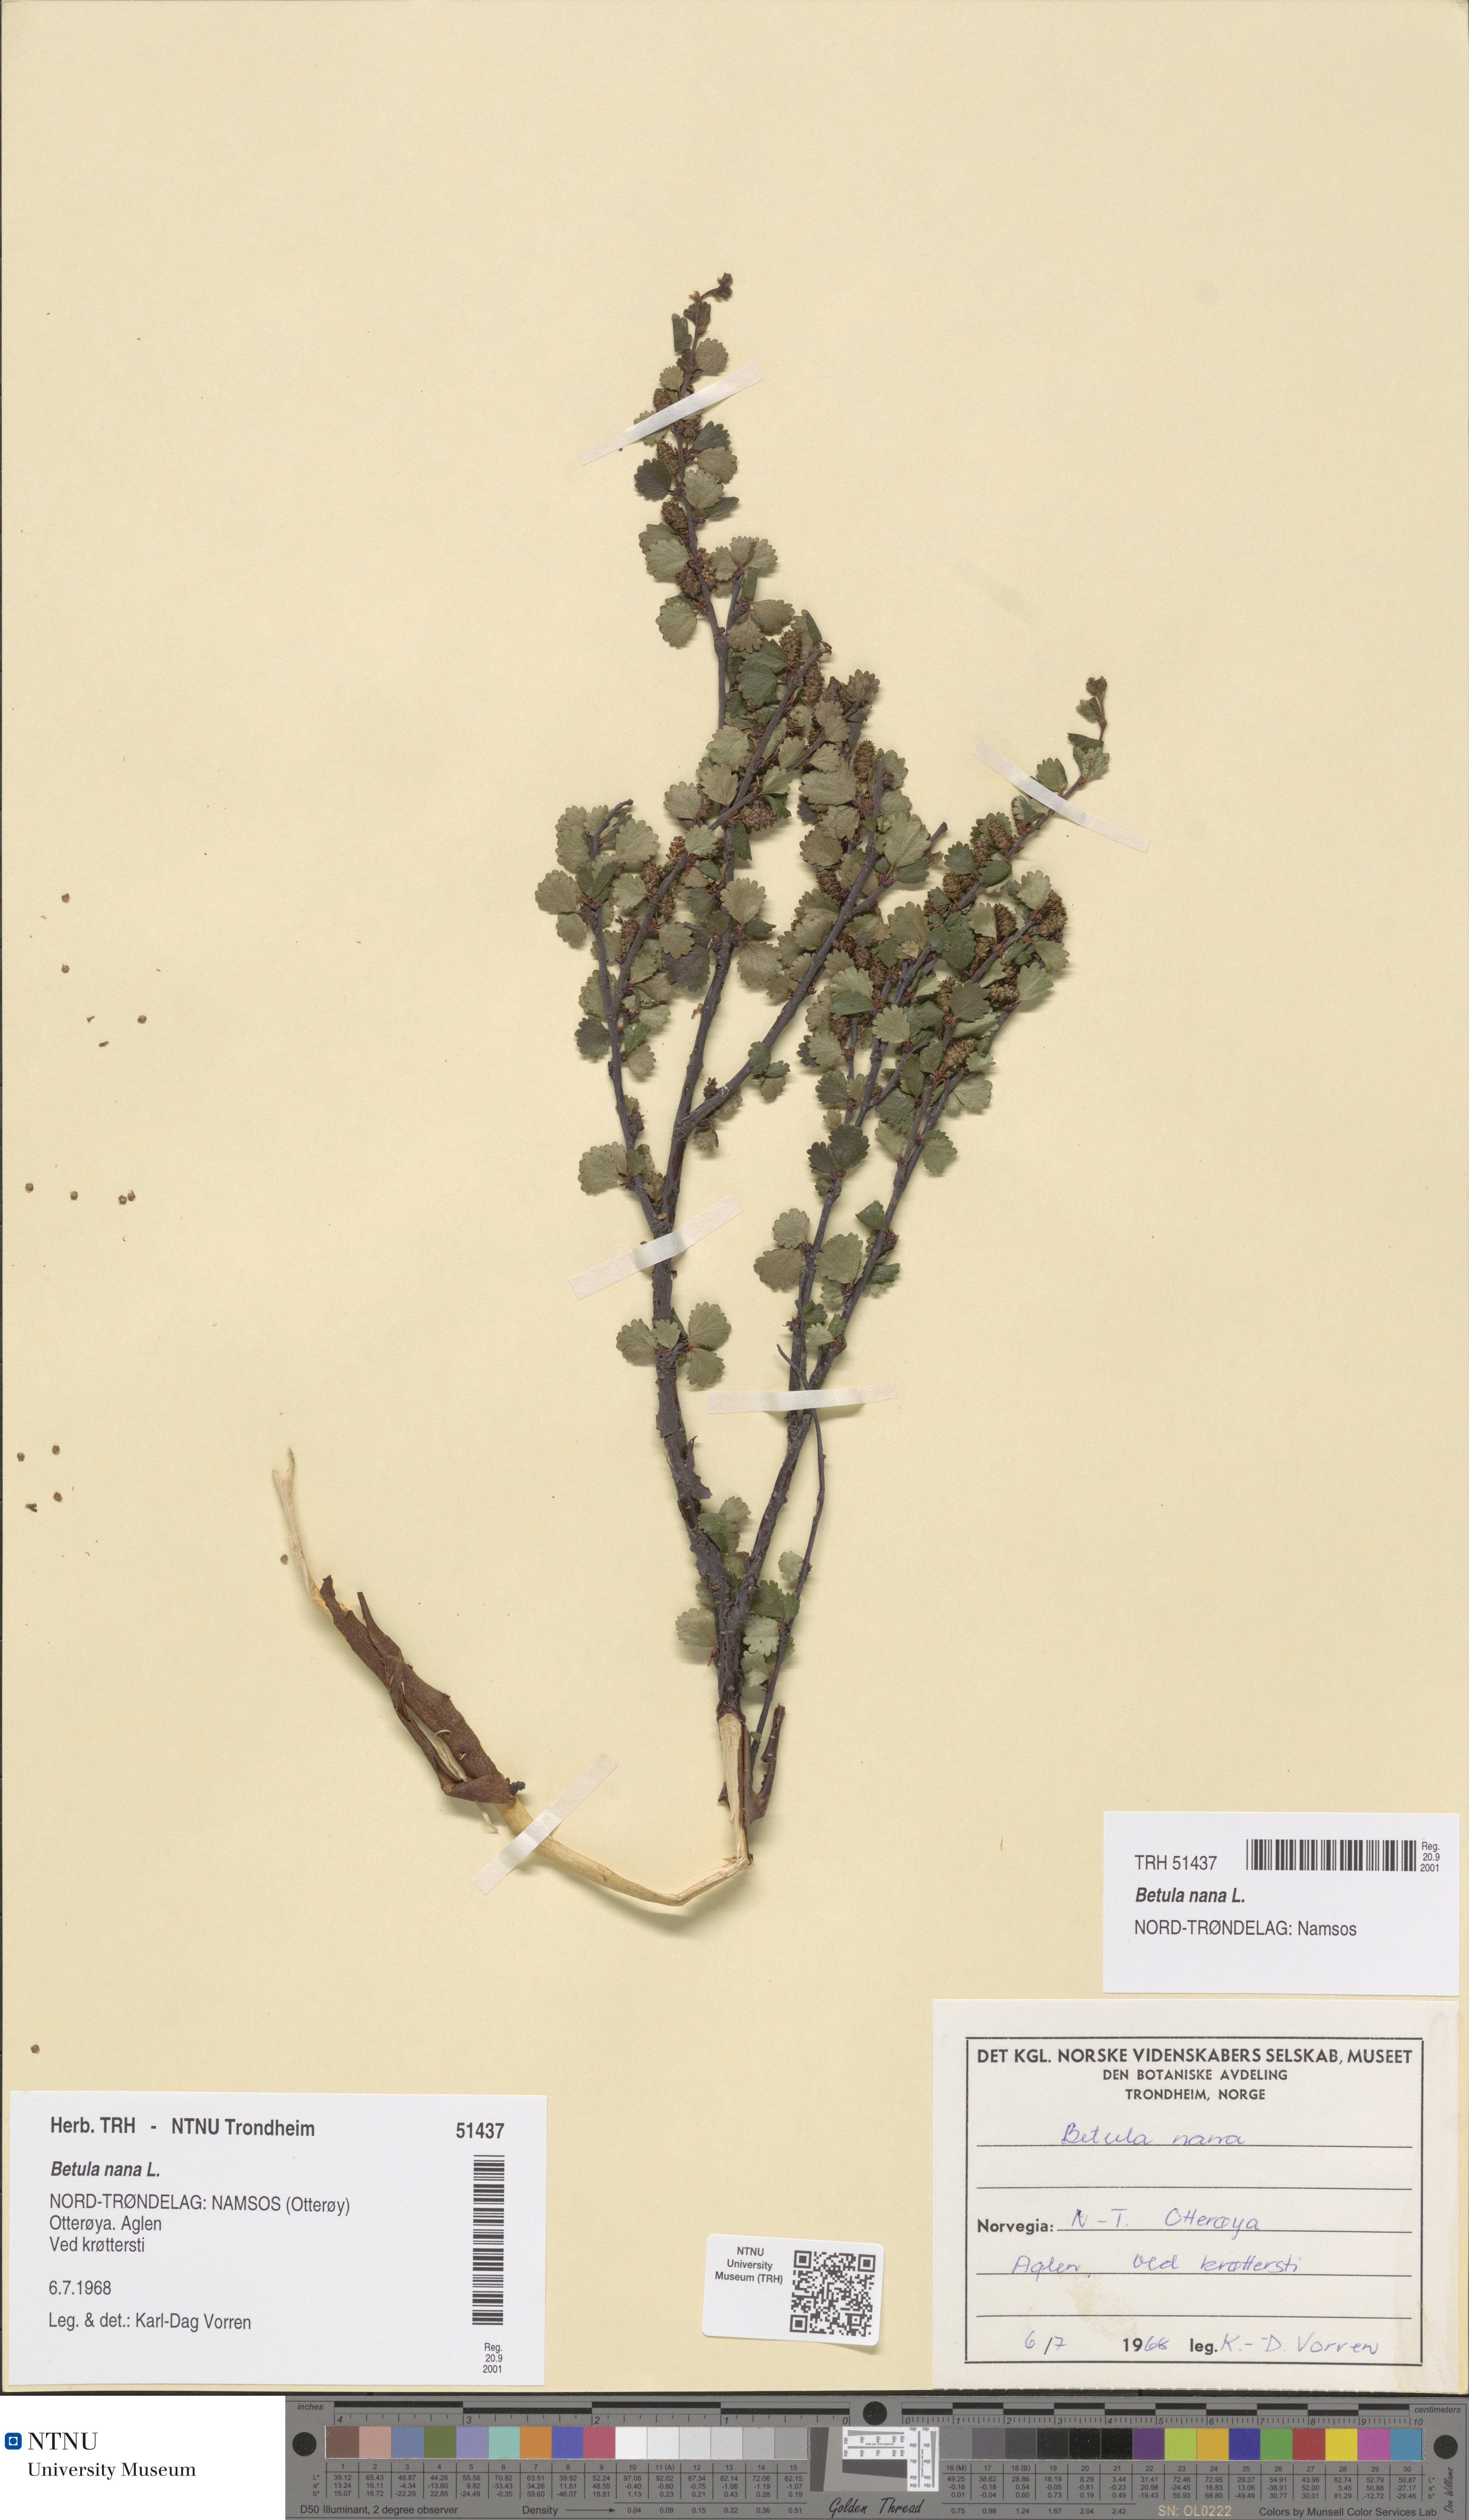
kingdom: Plantae
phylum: Tracheophyta
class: Magnoliopsida
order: Fagales
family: Betulaceae
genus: Betula
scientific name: Betula nana
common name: Arctic dwarf birch
